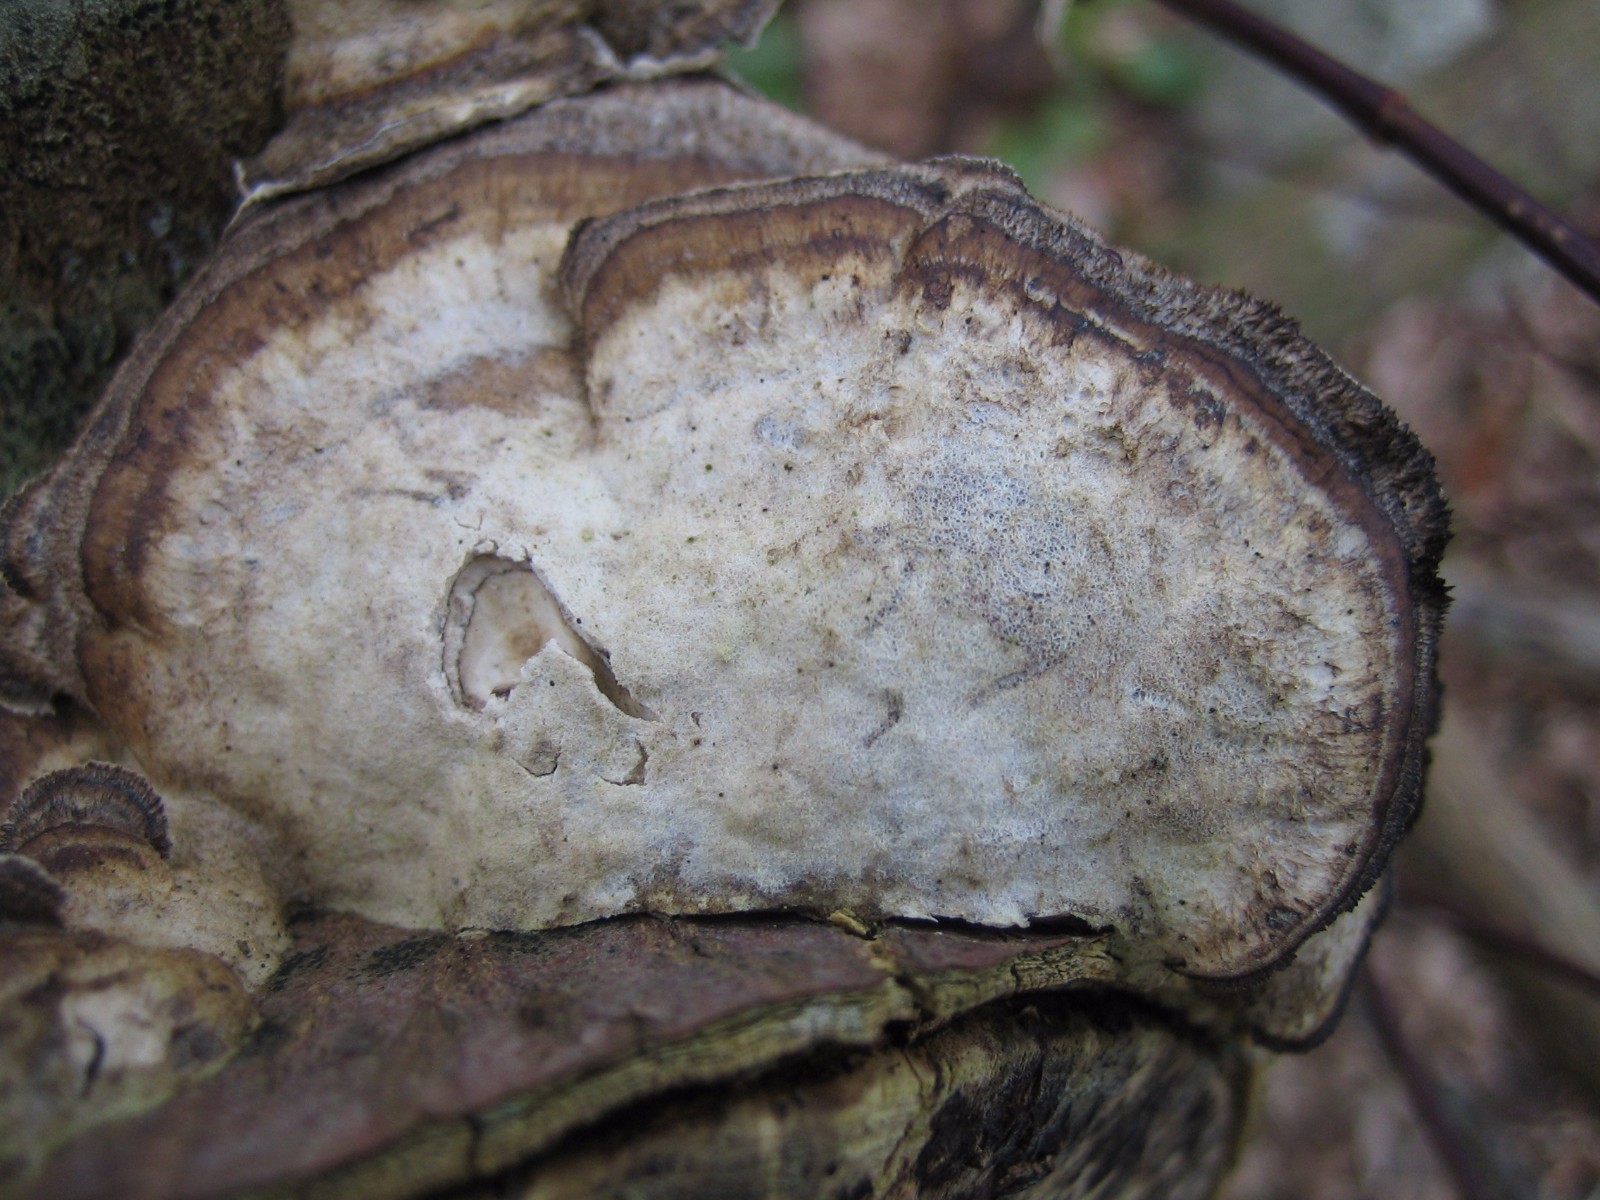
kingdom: Fungi
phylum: Basidiomycota
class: Agaricomycetes
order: Polyporales
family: Phanerochaetaceae
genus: Bjerkandera
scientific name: Bjerkandera adusta
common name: sveden sodporesvamp
